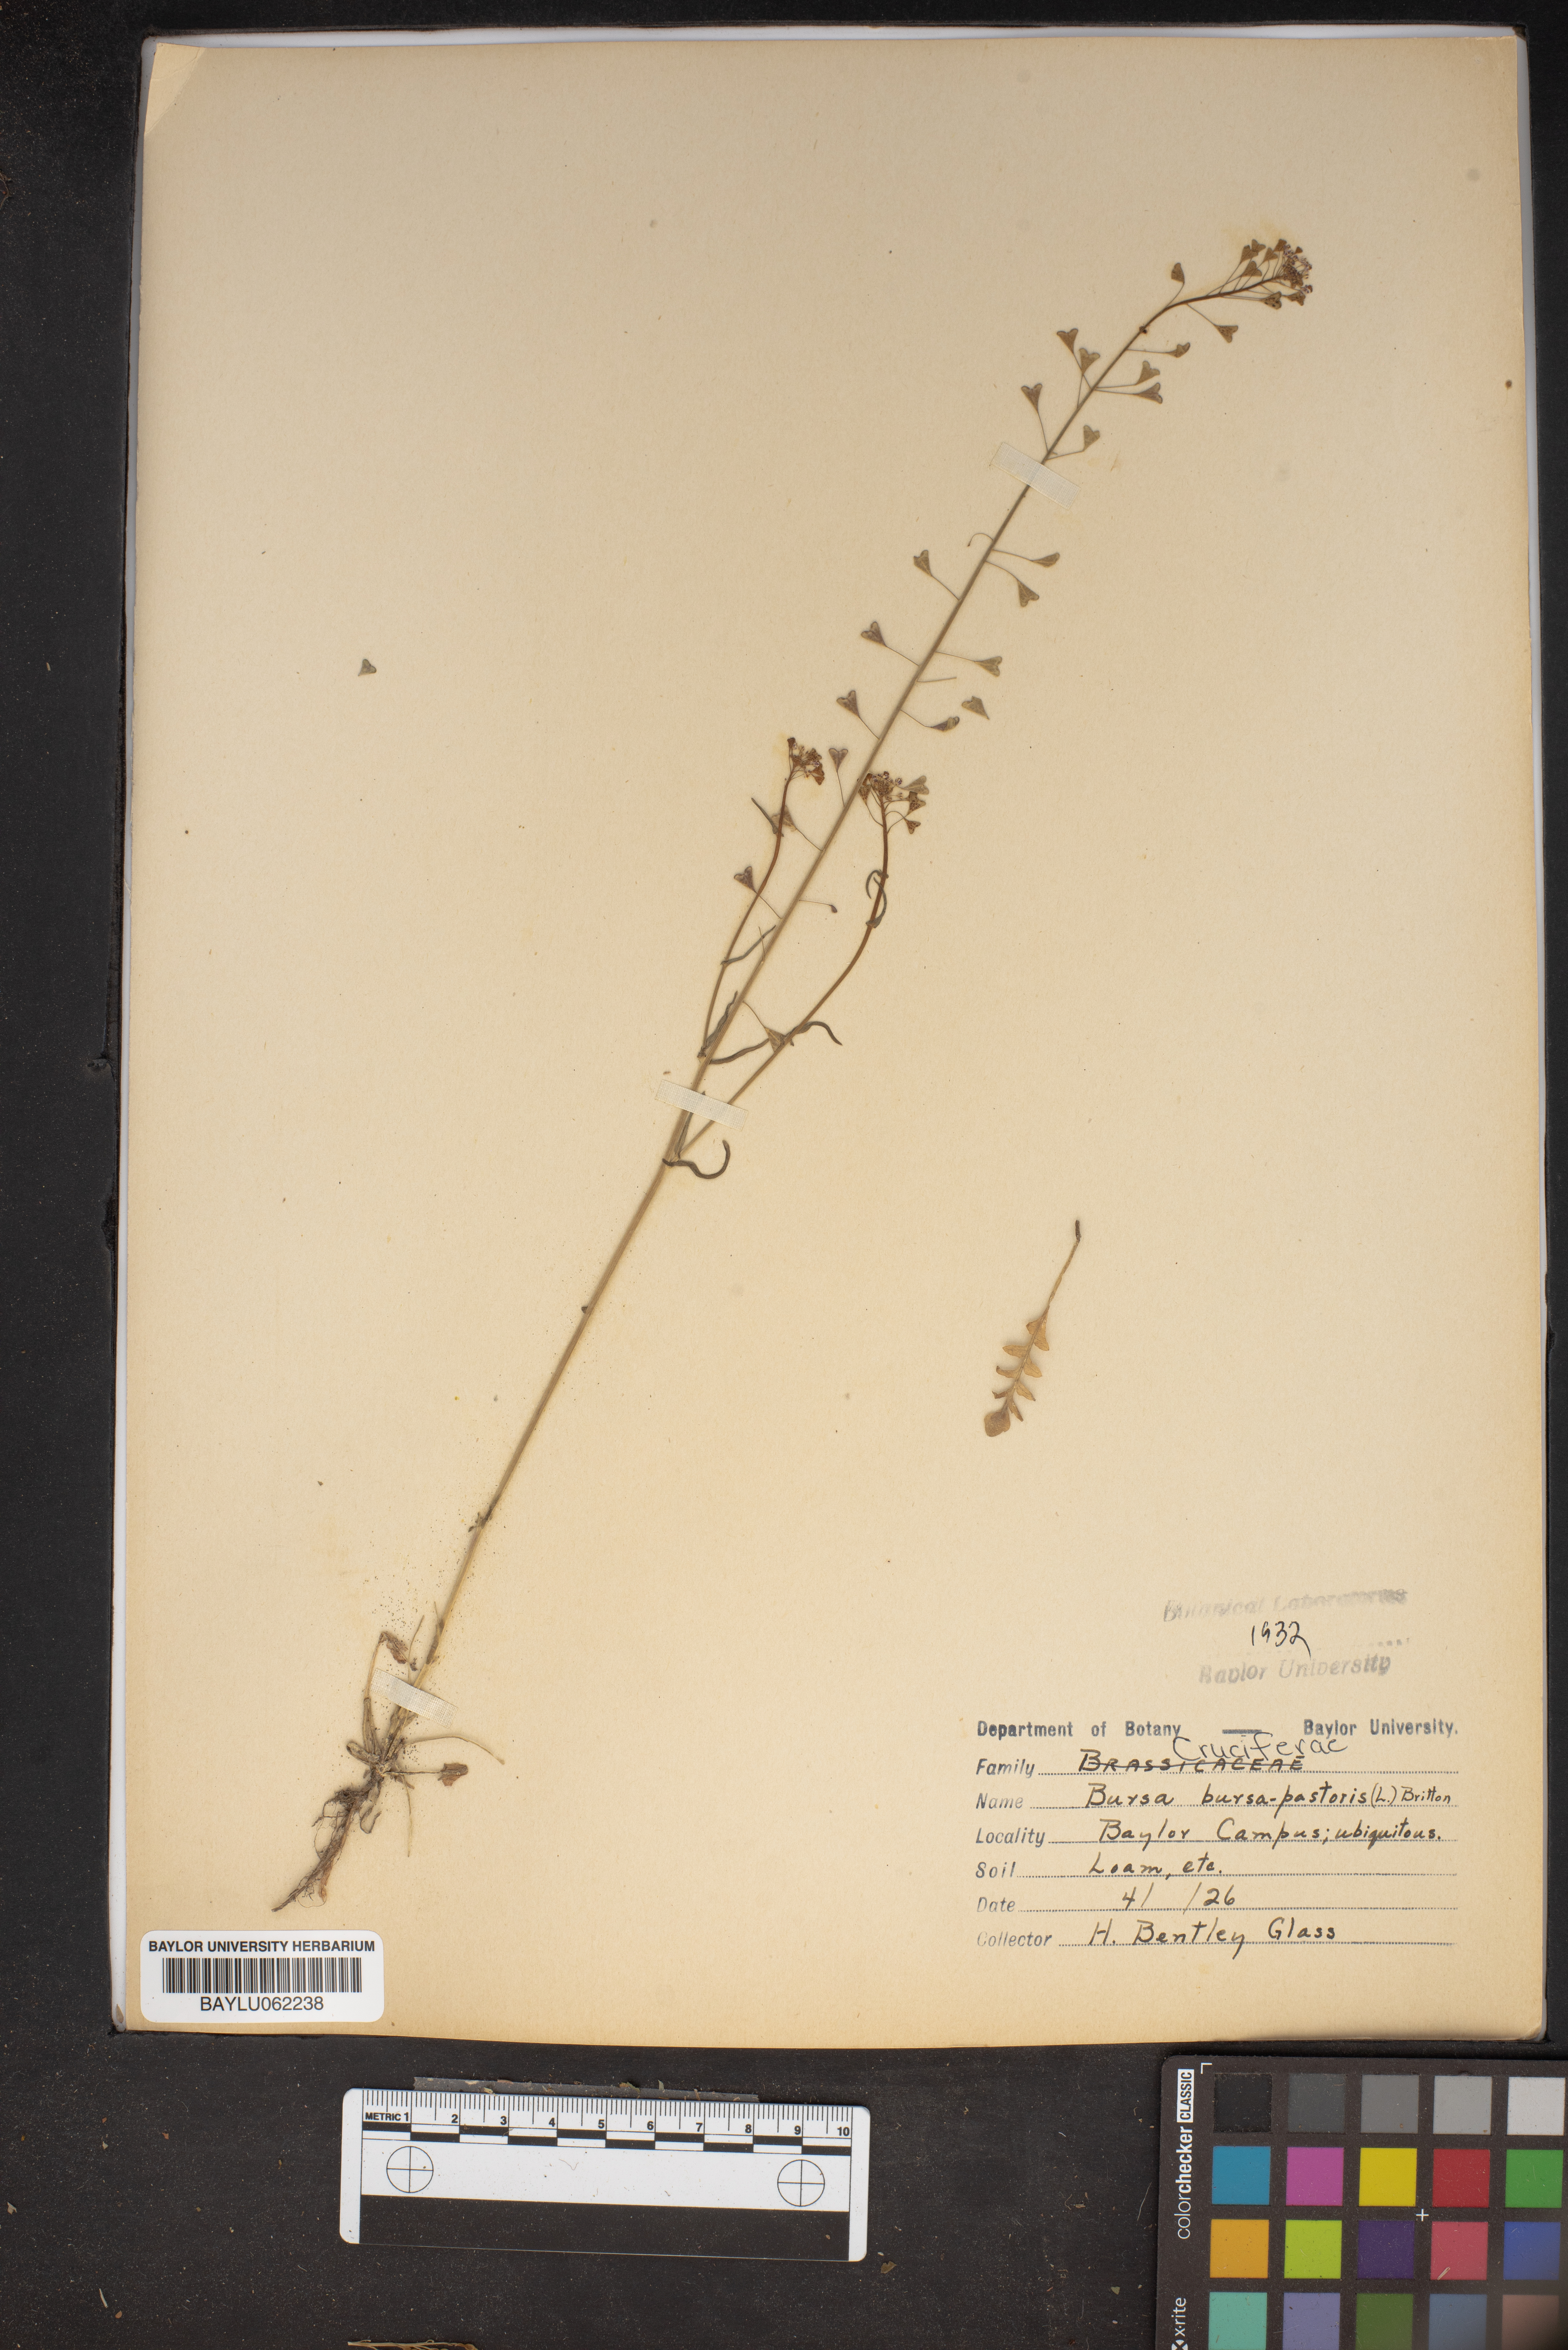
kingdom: Plantae
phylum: Tracheophyta
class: Magnoliopsida
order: Brassicales
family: Brassicaceae
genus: Capsella
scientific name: Capsella bursa-pastoris
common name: Shepherd's purse
